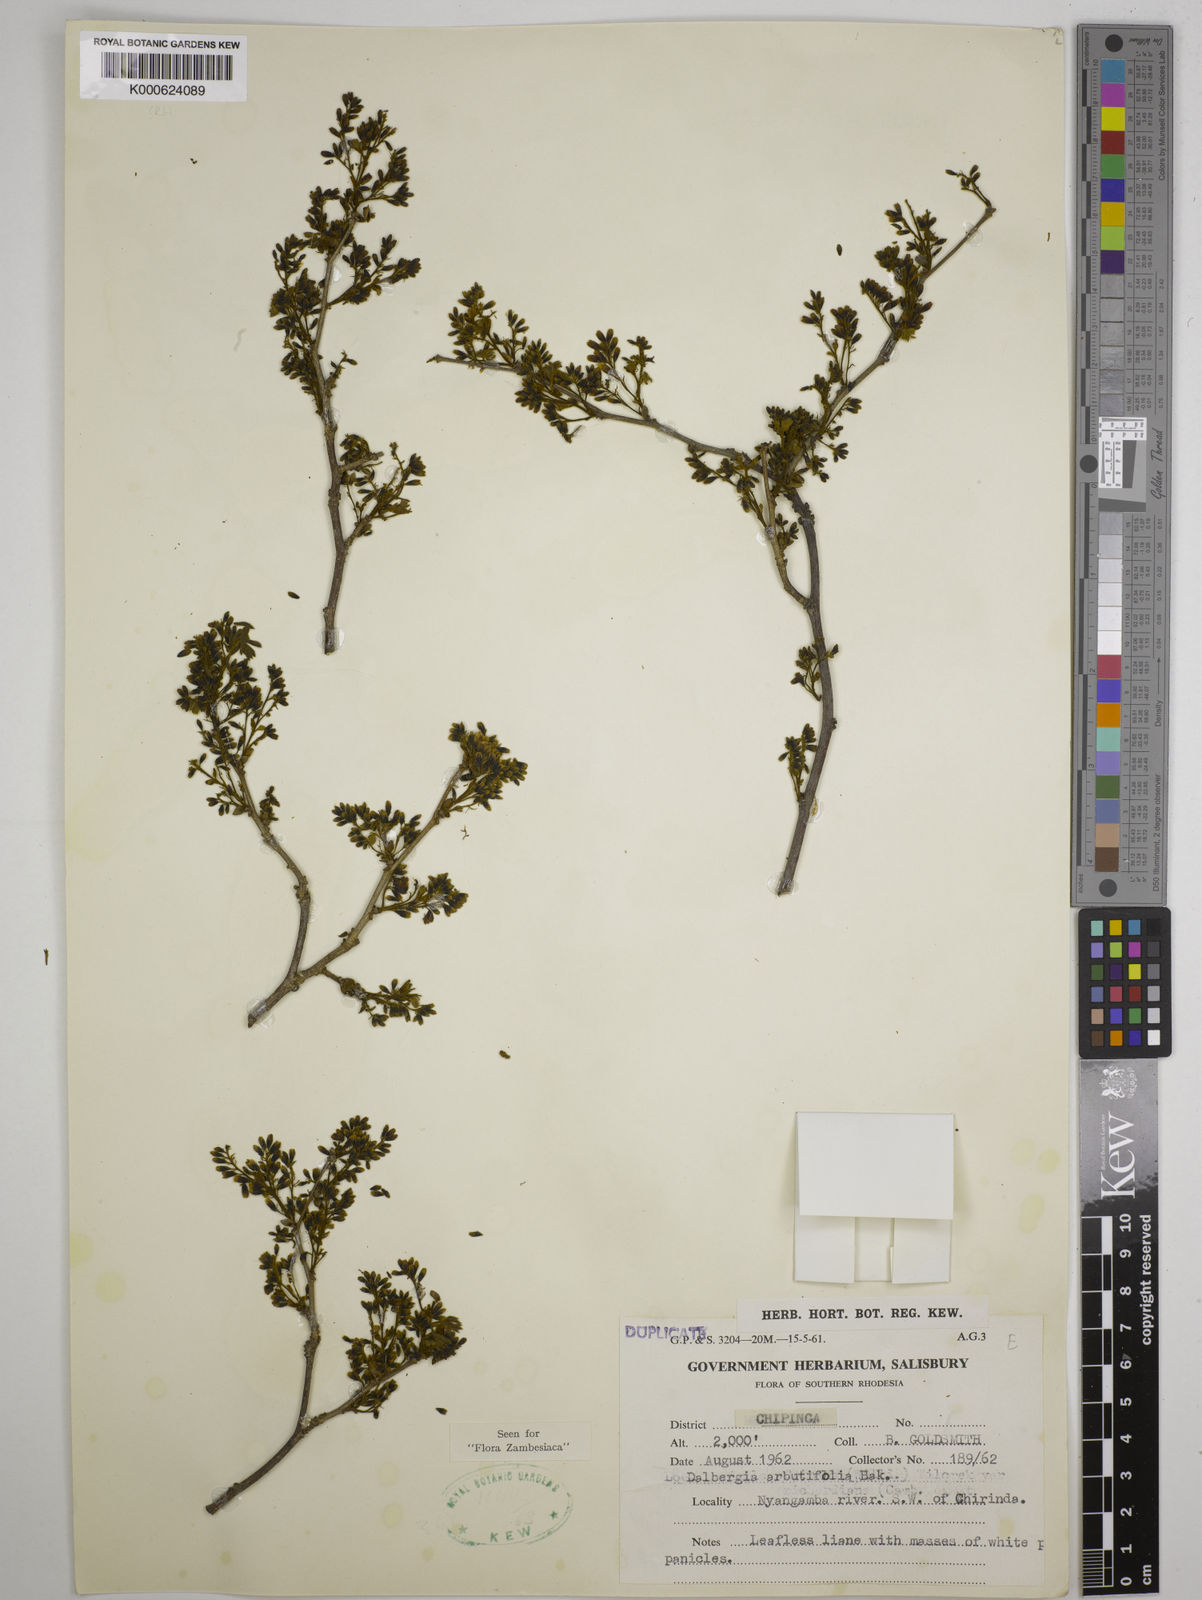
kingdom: Plantae
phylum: Tracheophyta
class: Magnoliopsida
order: Fabales
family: Fabaceae
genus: Dalbergia
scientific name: Dalbergia arbutifolia
